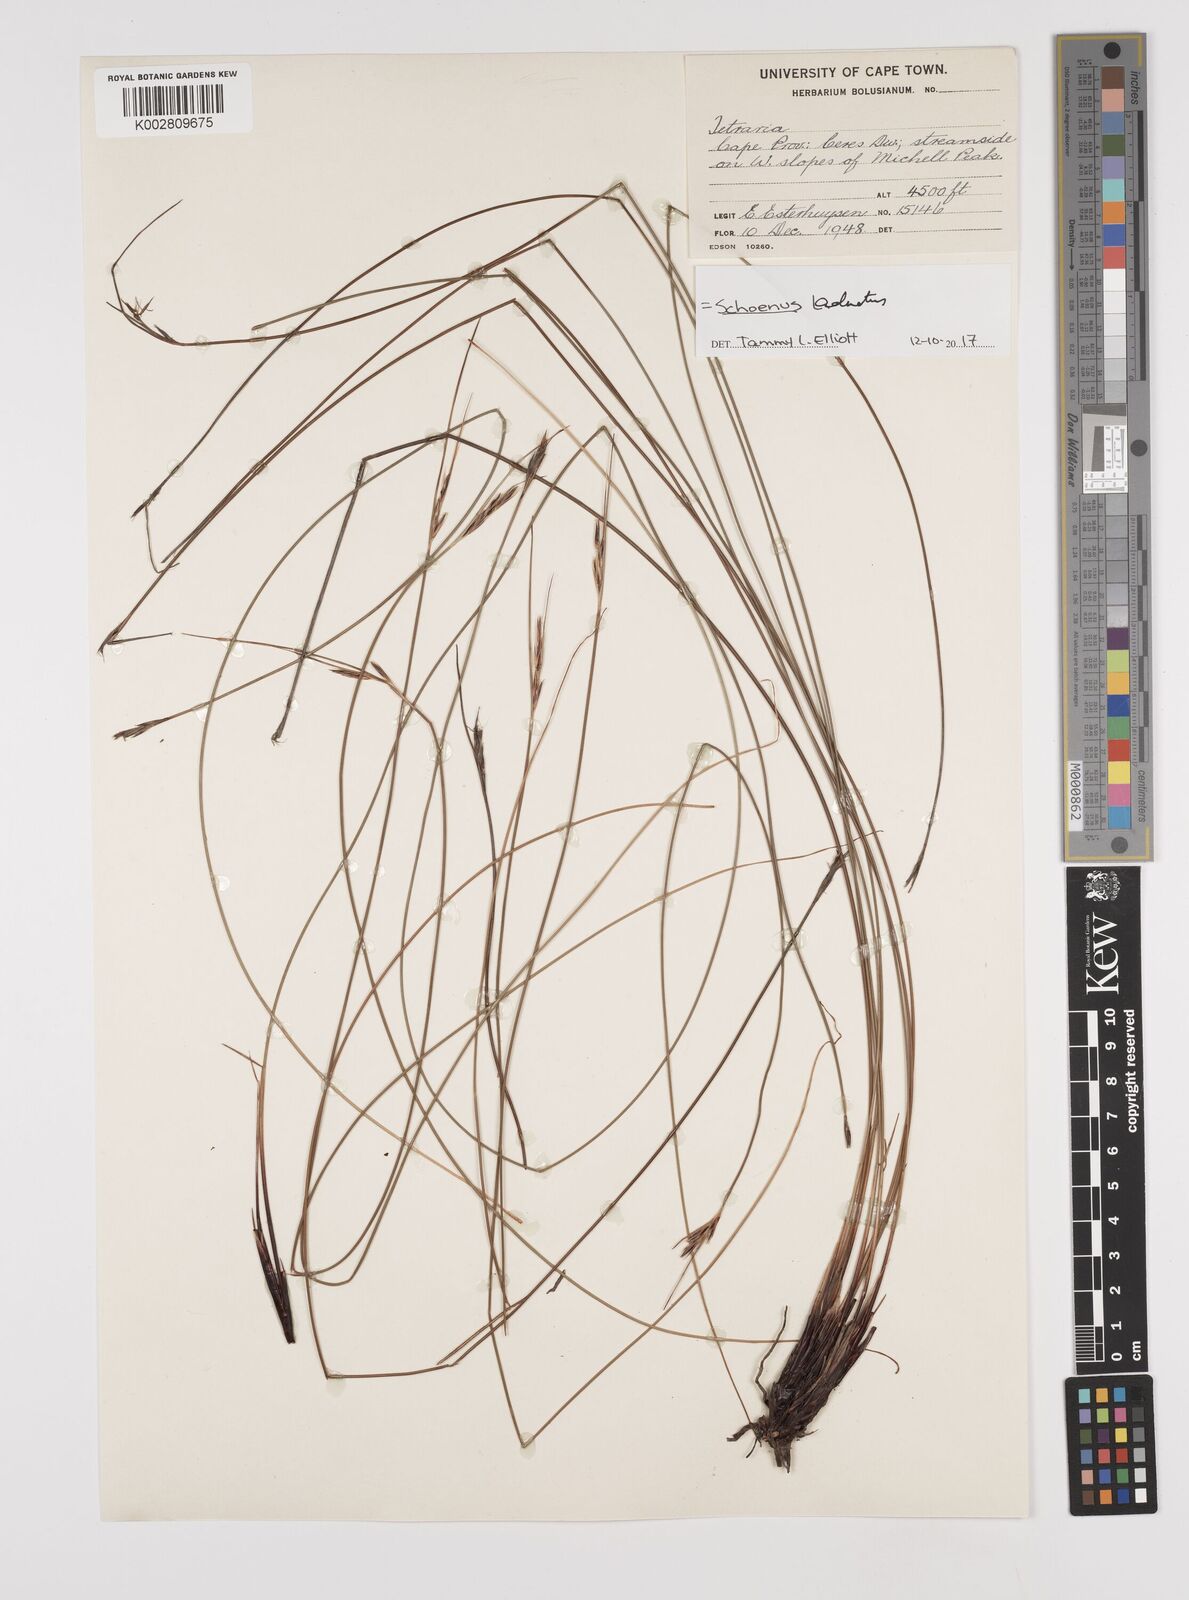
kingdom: Plantae
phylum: Tracheophyta
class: Liliopsida
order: Poales
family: Cyperaceae
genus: Schoenus
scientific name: Schoenus adnatus
